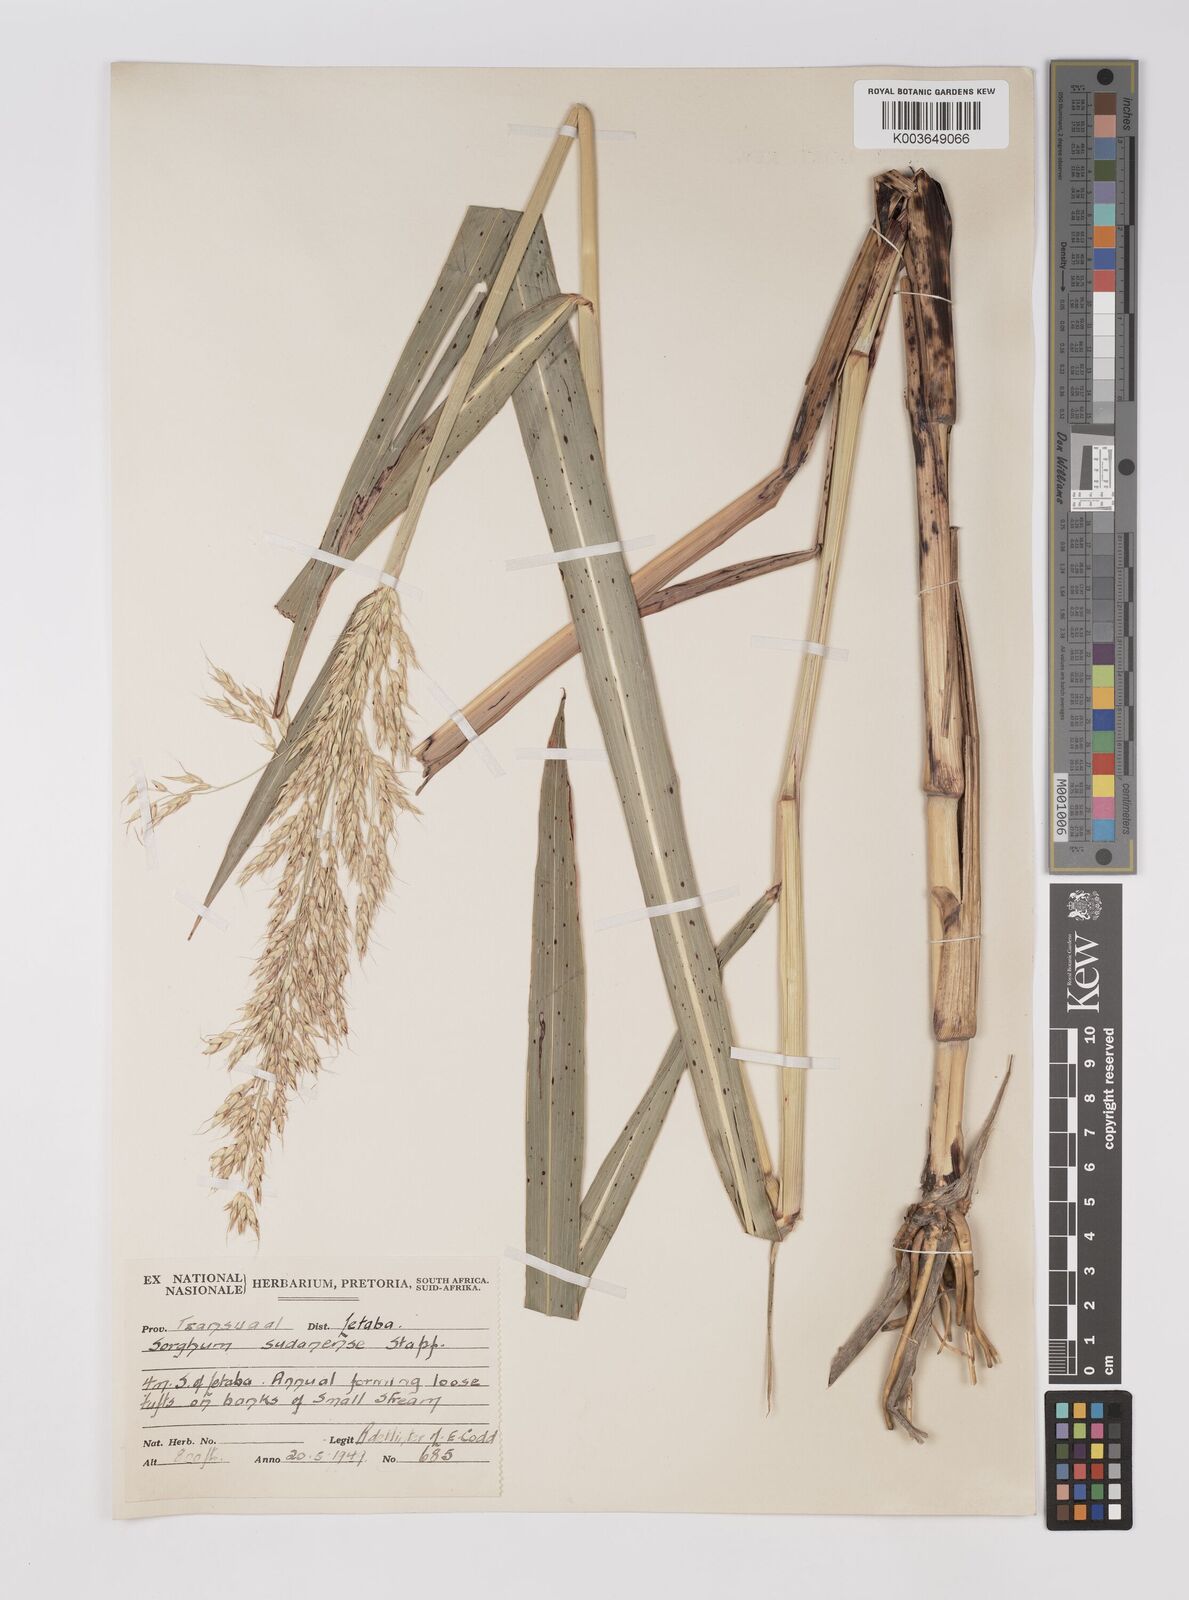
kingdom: Plantae
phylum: Tracheophyta
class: Liliopsida
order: Poales
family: Poaceae
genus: Sorghum
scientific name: Sorghum drummondii
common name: Sudangrass
